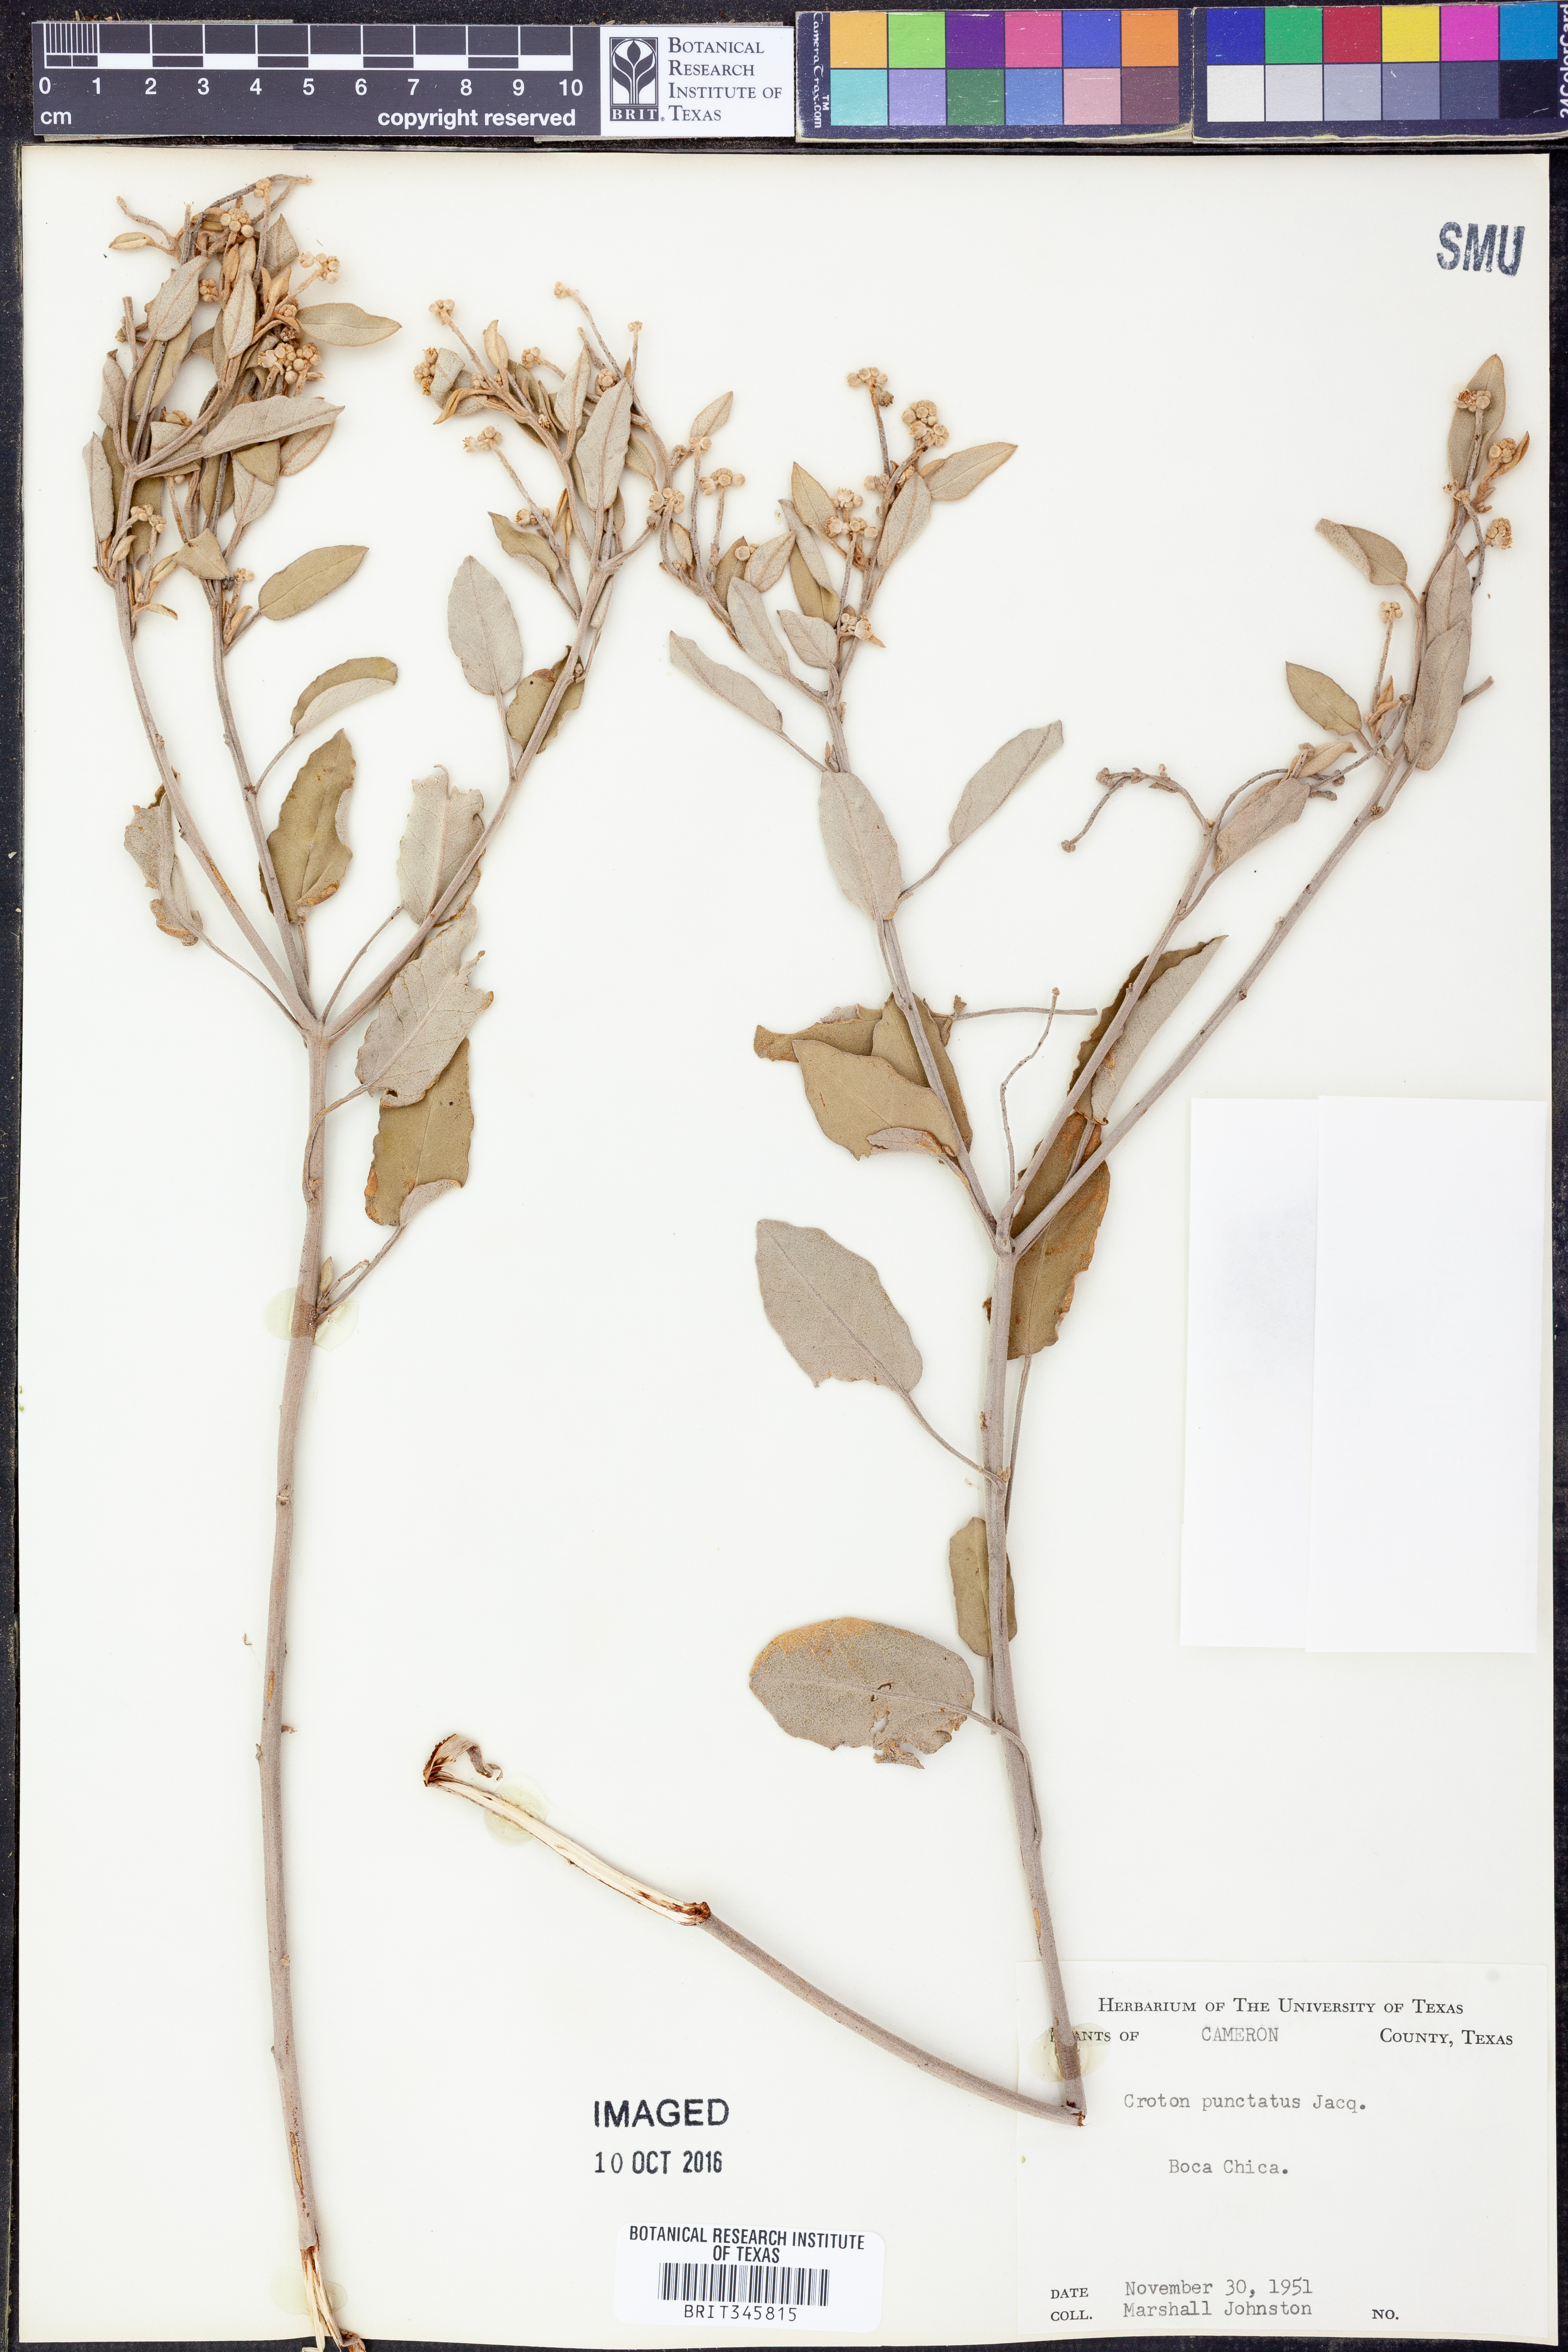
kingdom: Plantae
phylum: Tracheophyta
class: Magnoliopsida
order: Malpighiales
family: Euphorbiaceae
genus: Croton
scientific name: Croton punctatus
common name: Beach-tea
